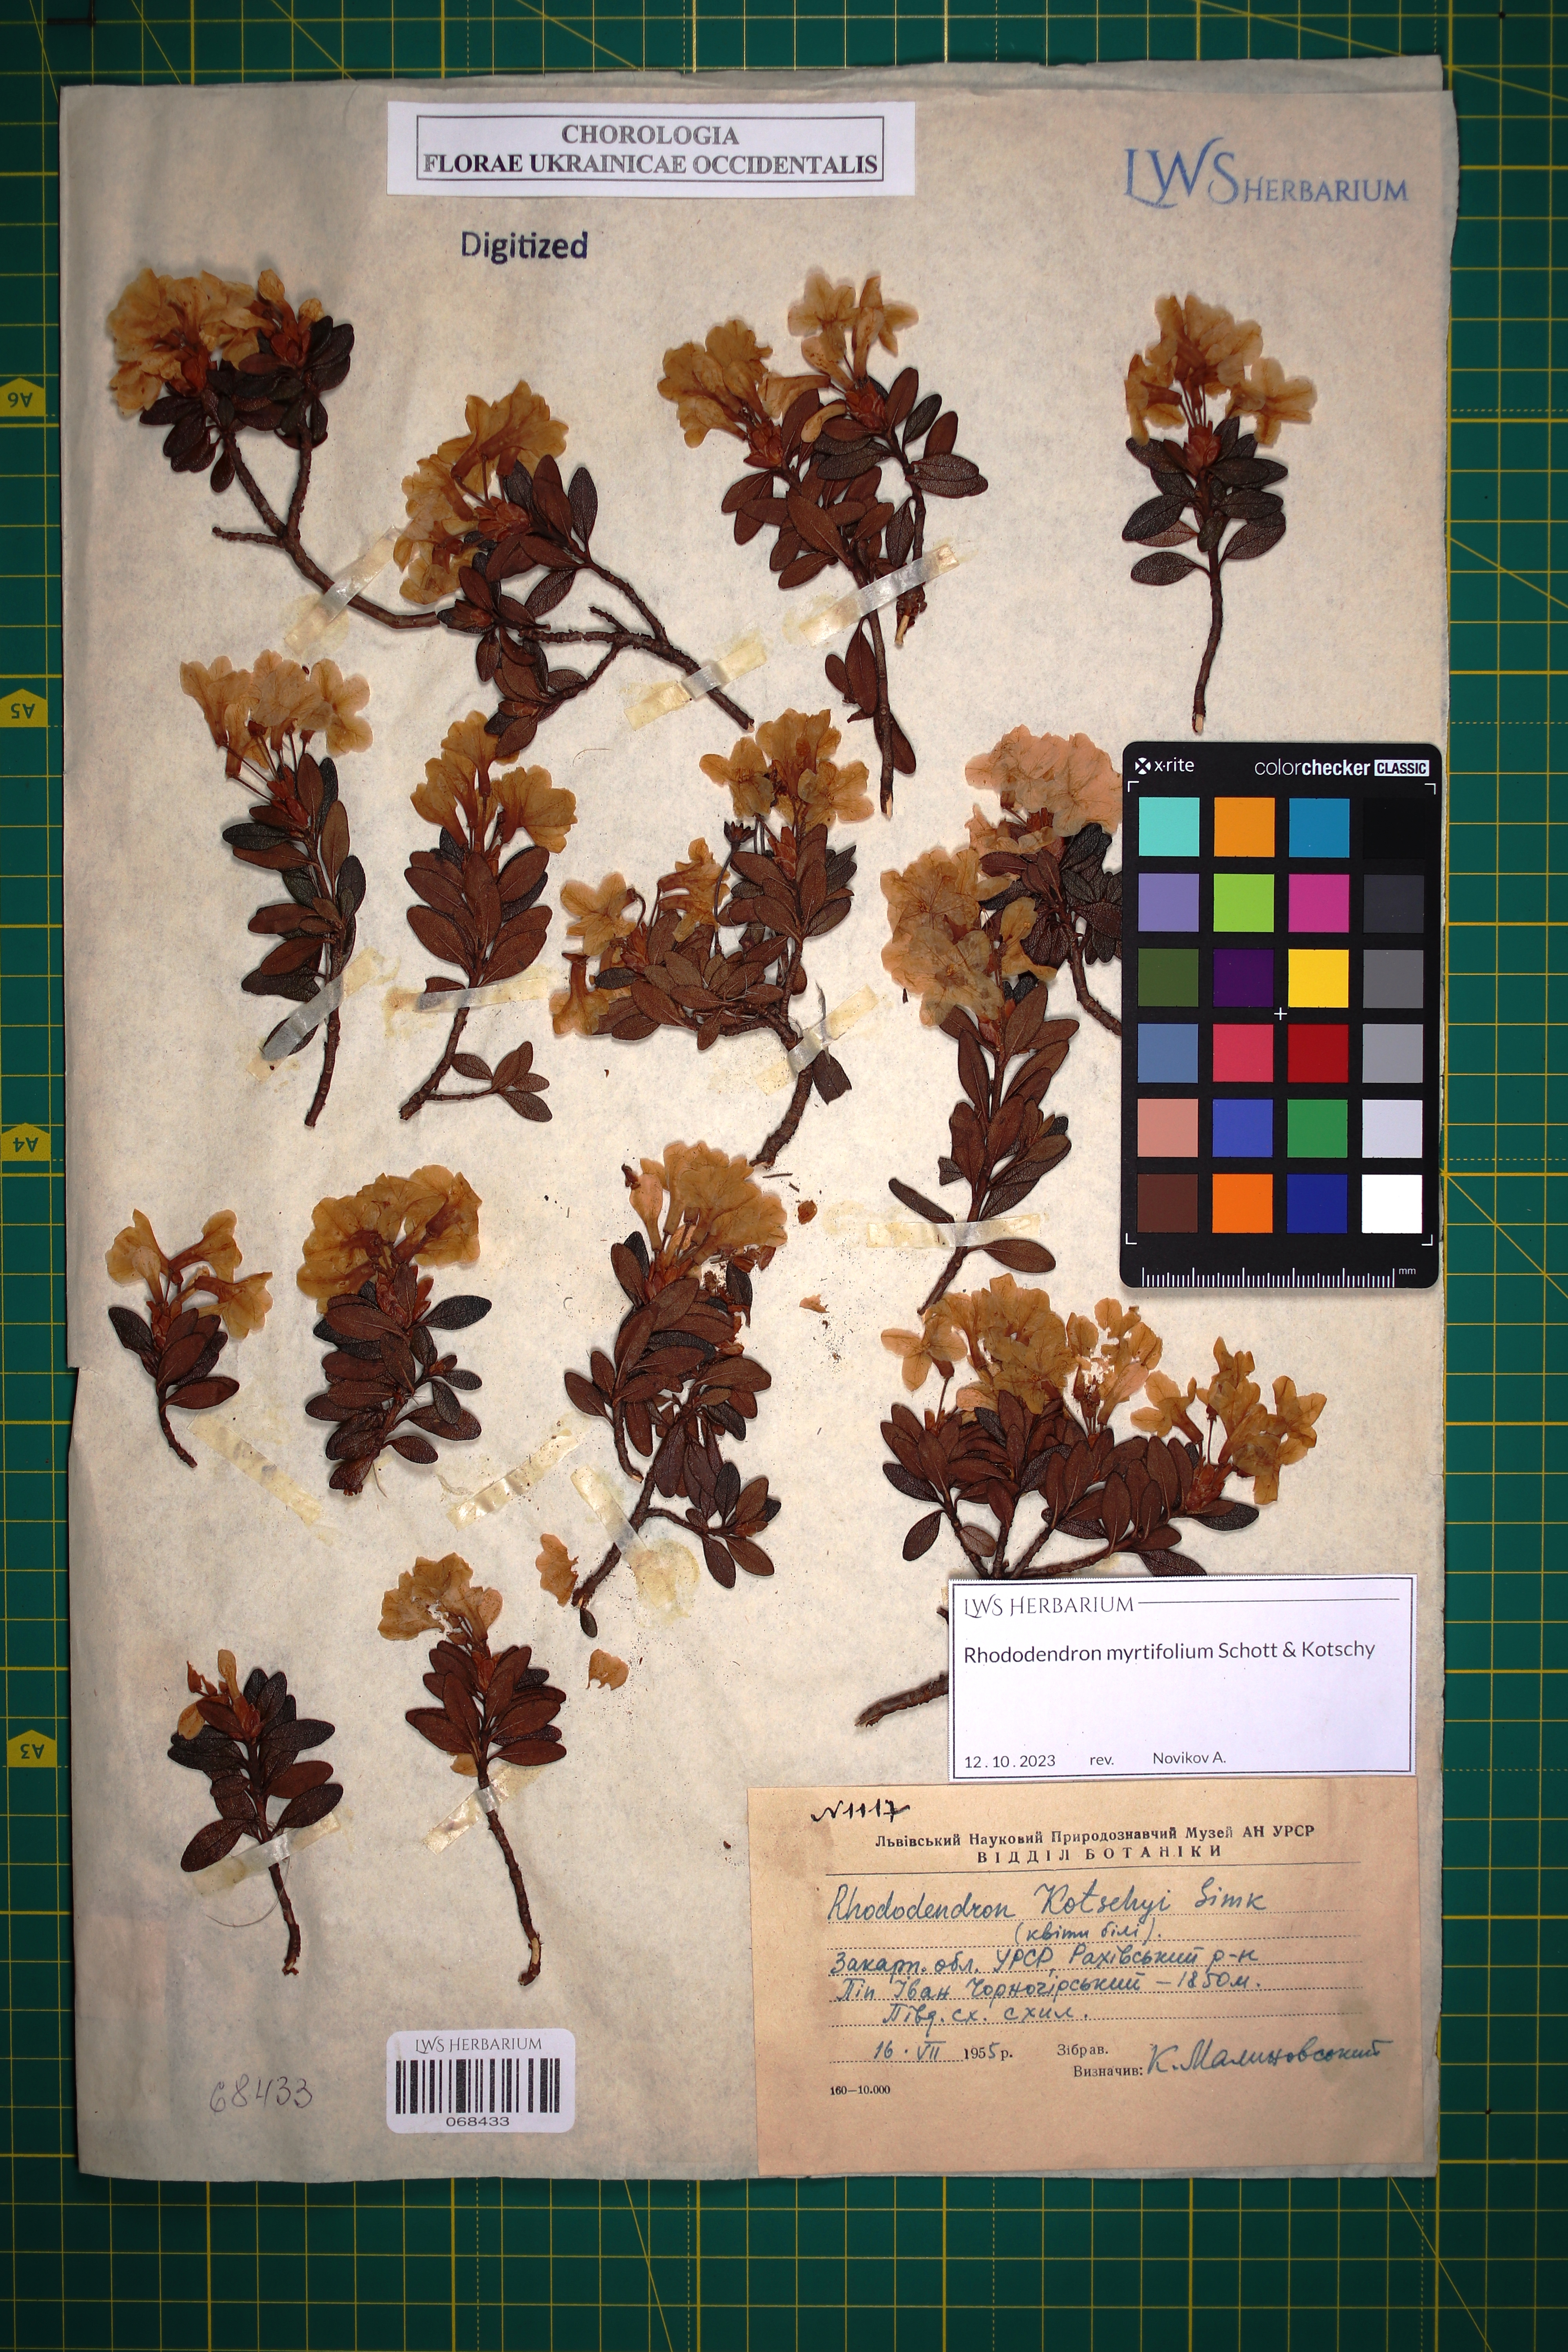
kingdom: Plantae
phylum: Tracheophyta
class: Magnoliopsida
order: Ericales
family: Ericaceae
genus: Rhododendron
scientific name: Rhododendron kotschyi
